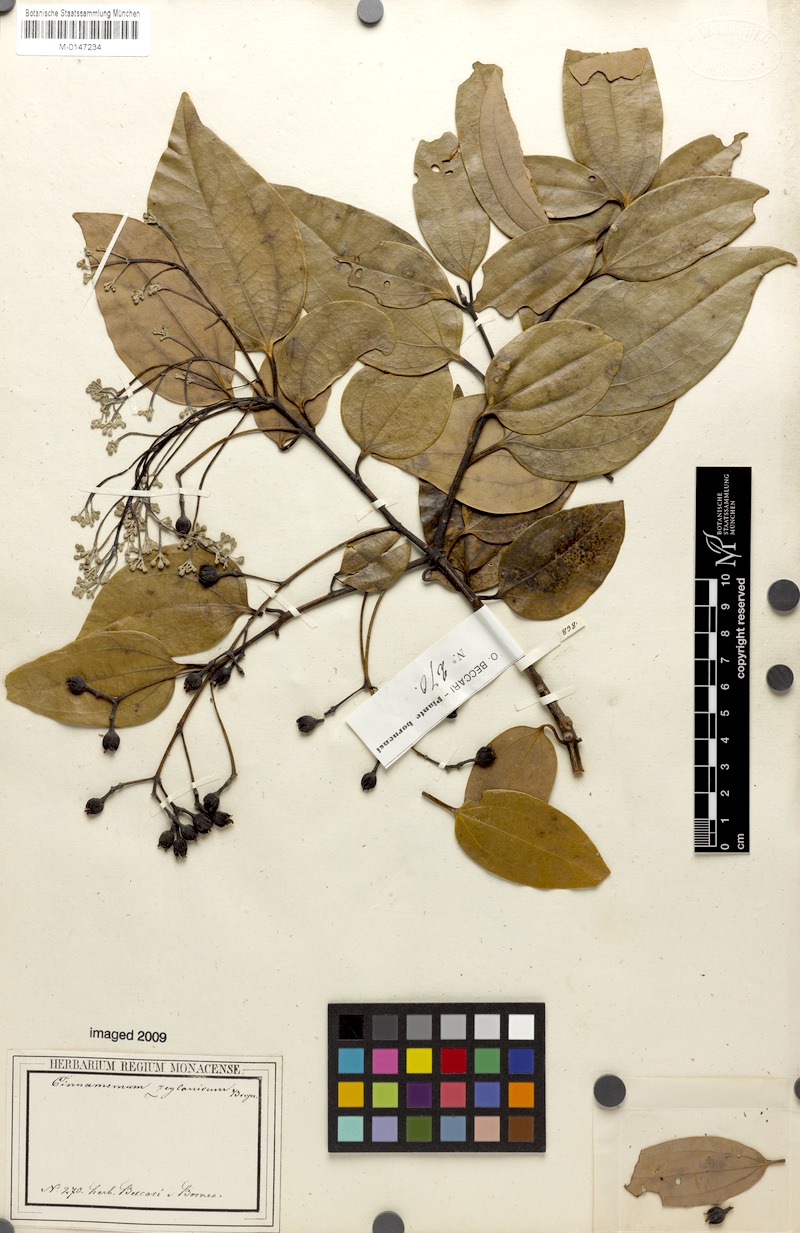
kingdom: Plantae
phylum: Tracheophyta
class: Magnoliopsida
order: Laurales
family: Lauraceae
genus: Cinnamomum
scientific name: Cinnamomum verum
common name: Cinnamon
